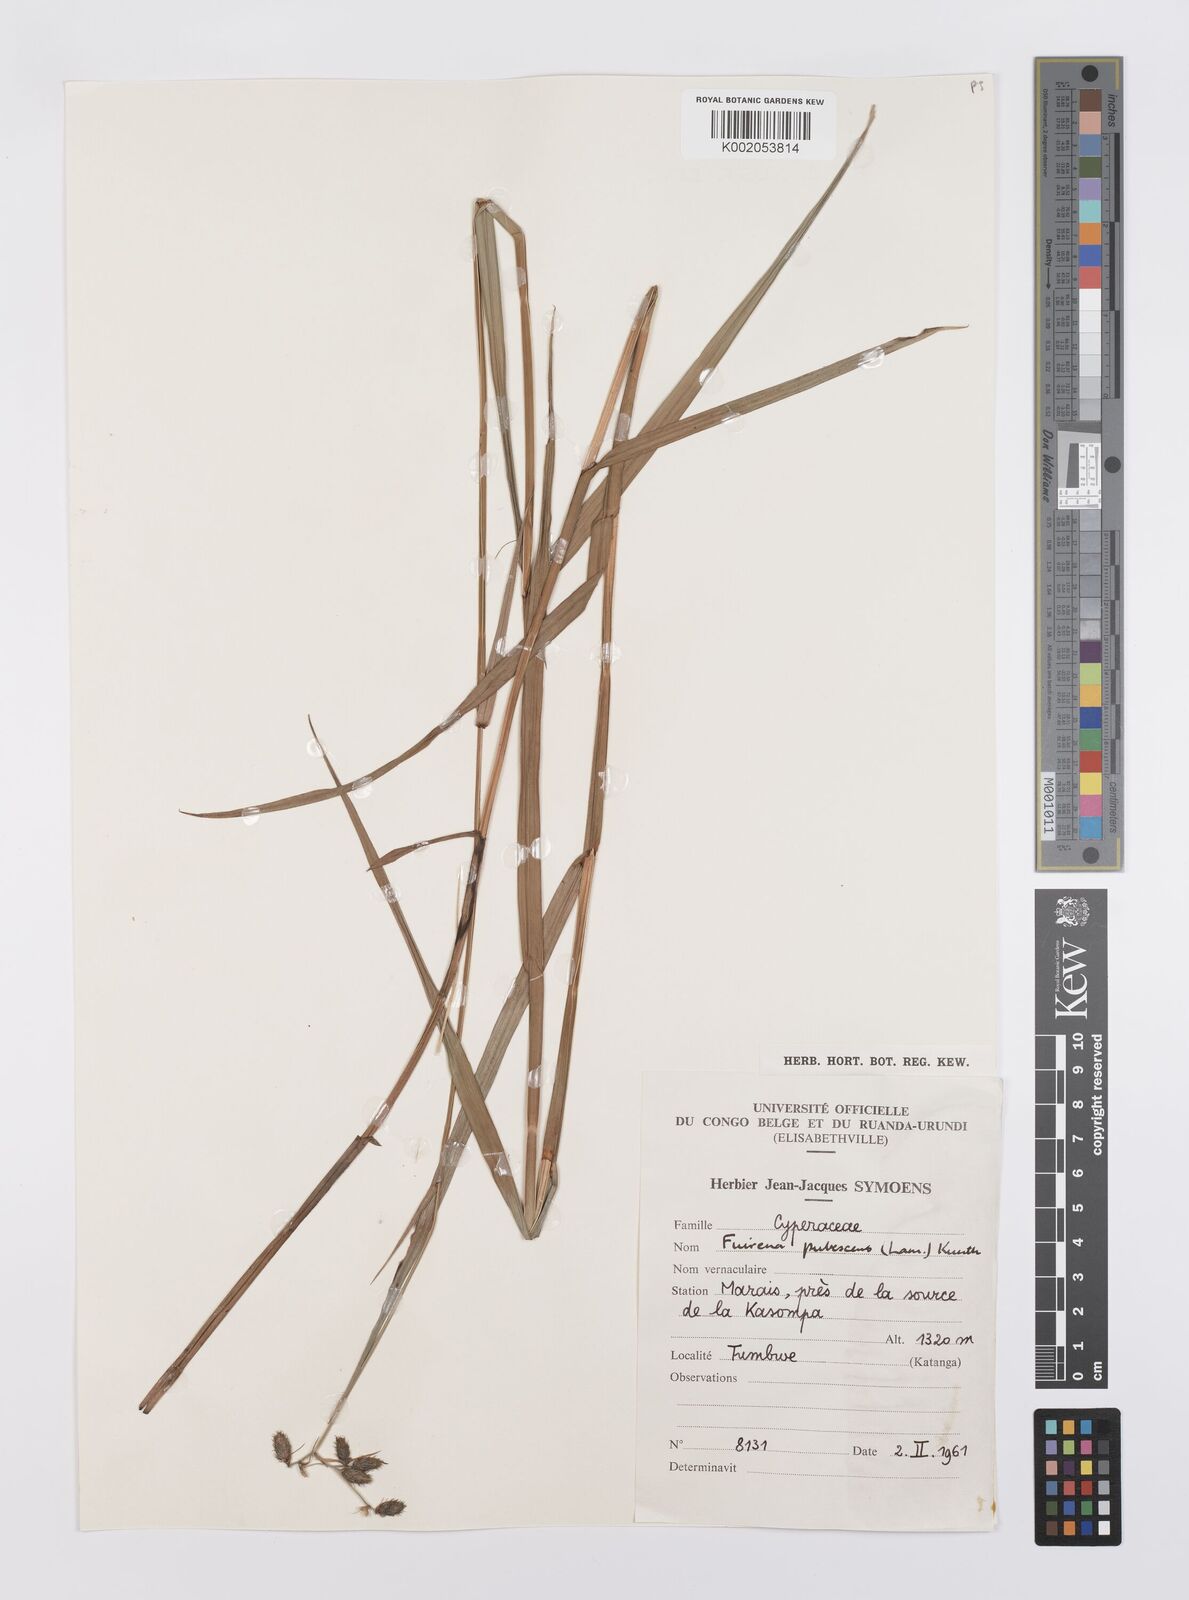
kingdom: Plantae
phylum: Tracheophyta
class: Liliopsida
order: Poales
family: Cyperaceae
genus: Fuirena
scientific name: Fuirena pubescens
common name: Hairy sedge
